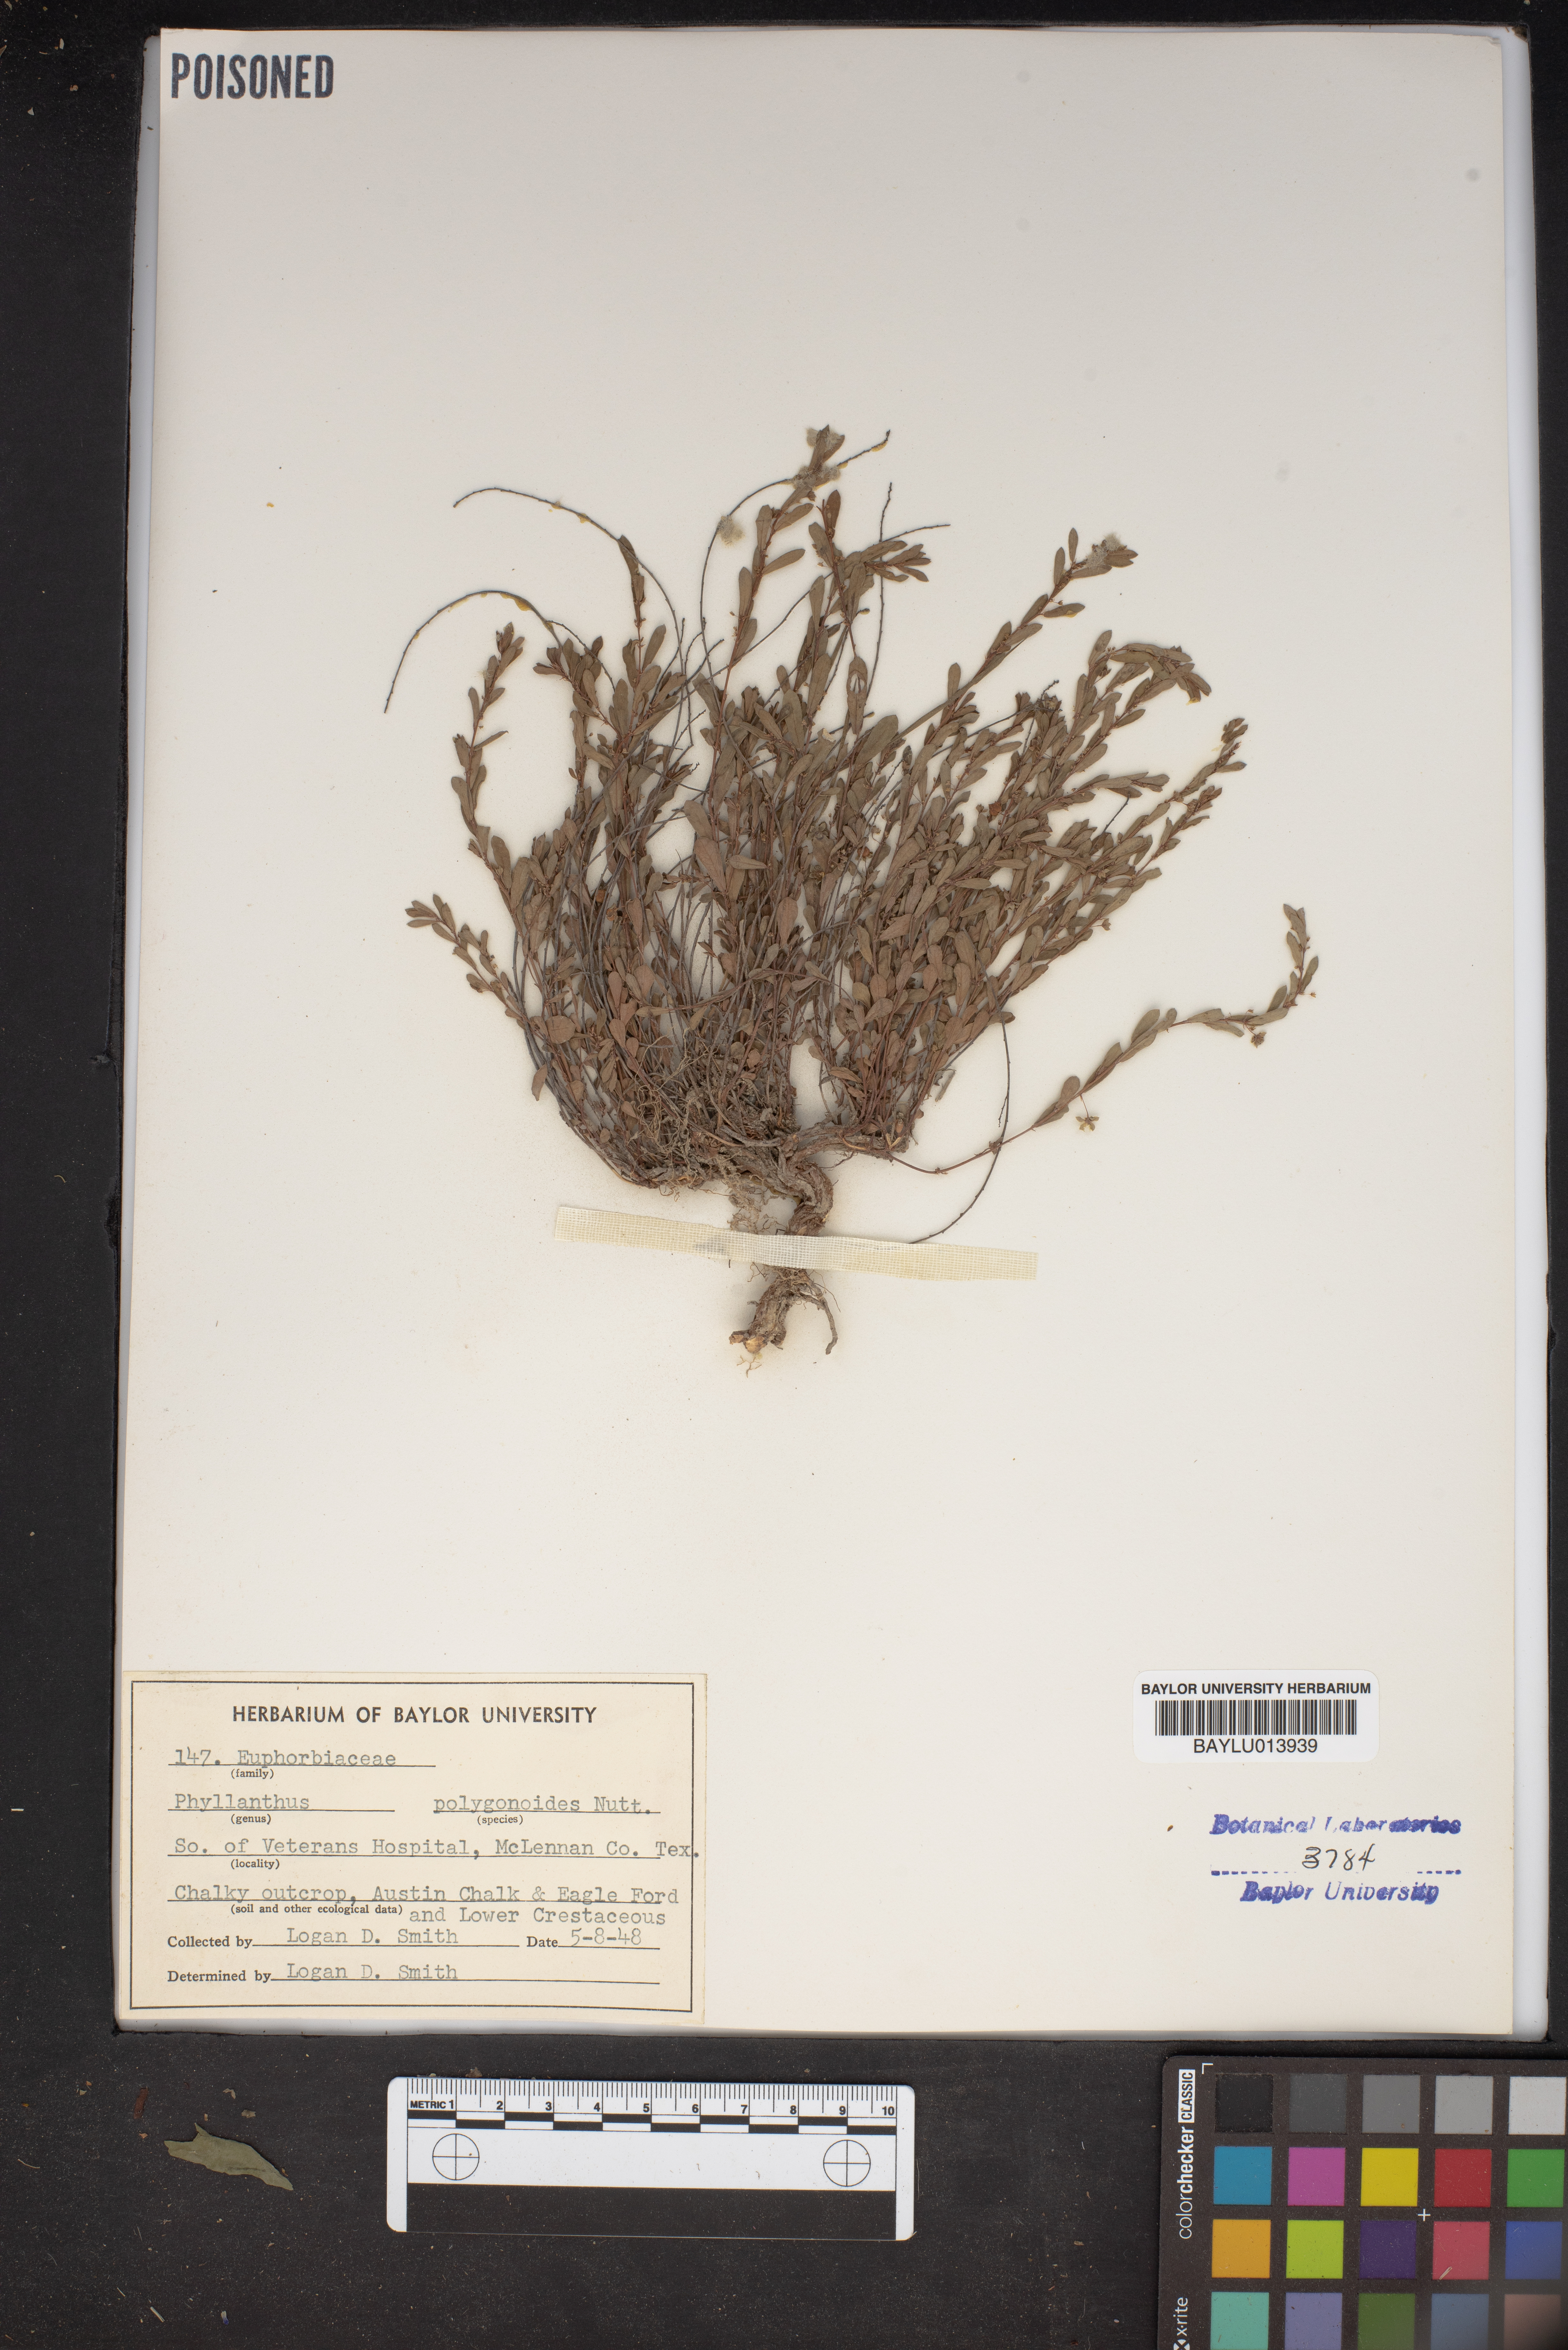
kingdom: Plantae
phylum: Tracheophyta
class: Magnoliopsida
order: Malpighiales
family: Phyllanthaceae
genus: Phyllanthus
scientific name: Phyllanthus polygonoides
